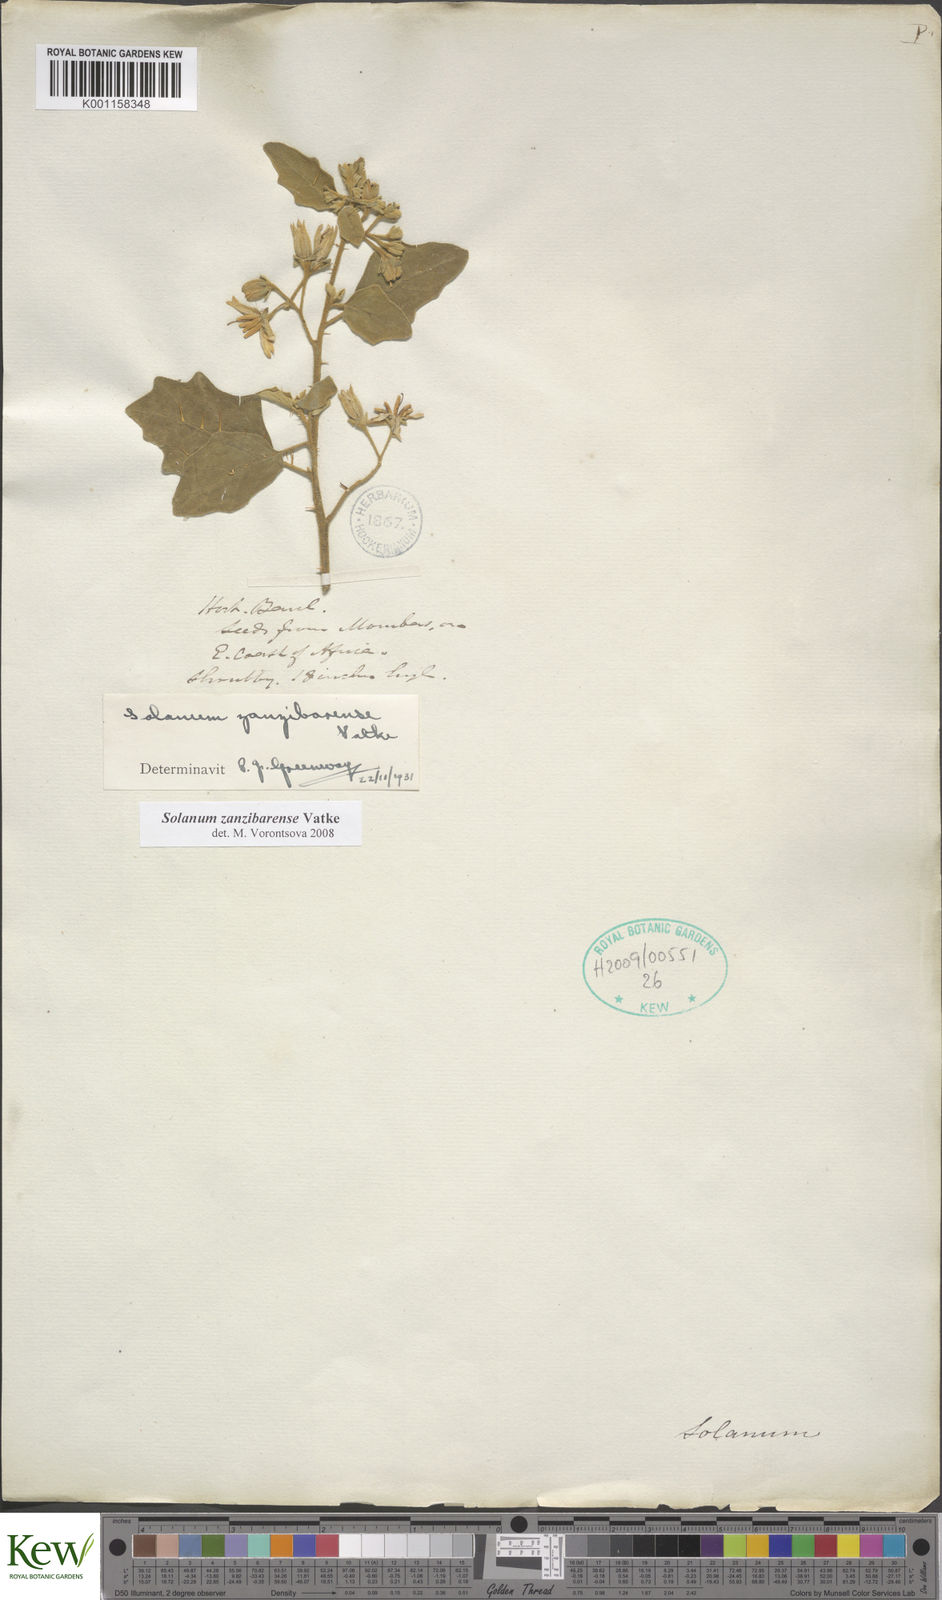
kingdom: Plantae
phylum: Tracheophyta
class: Magnoliopsida
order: Solanales
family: Solanaceae
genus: Solanum
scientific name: Solanum zanzibarense
